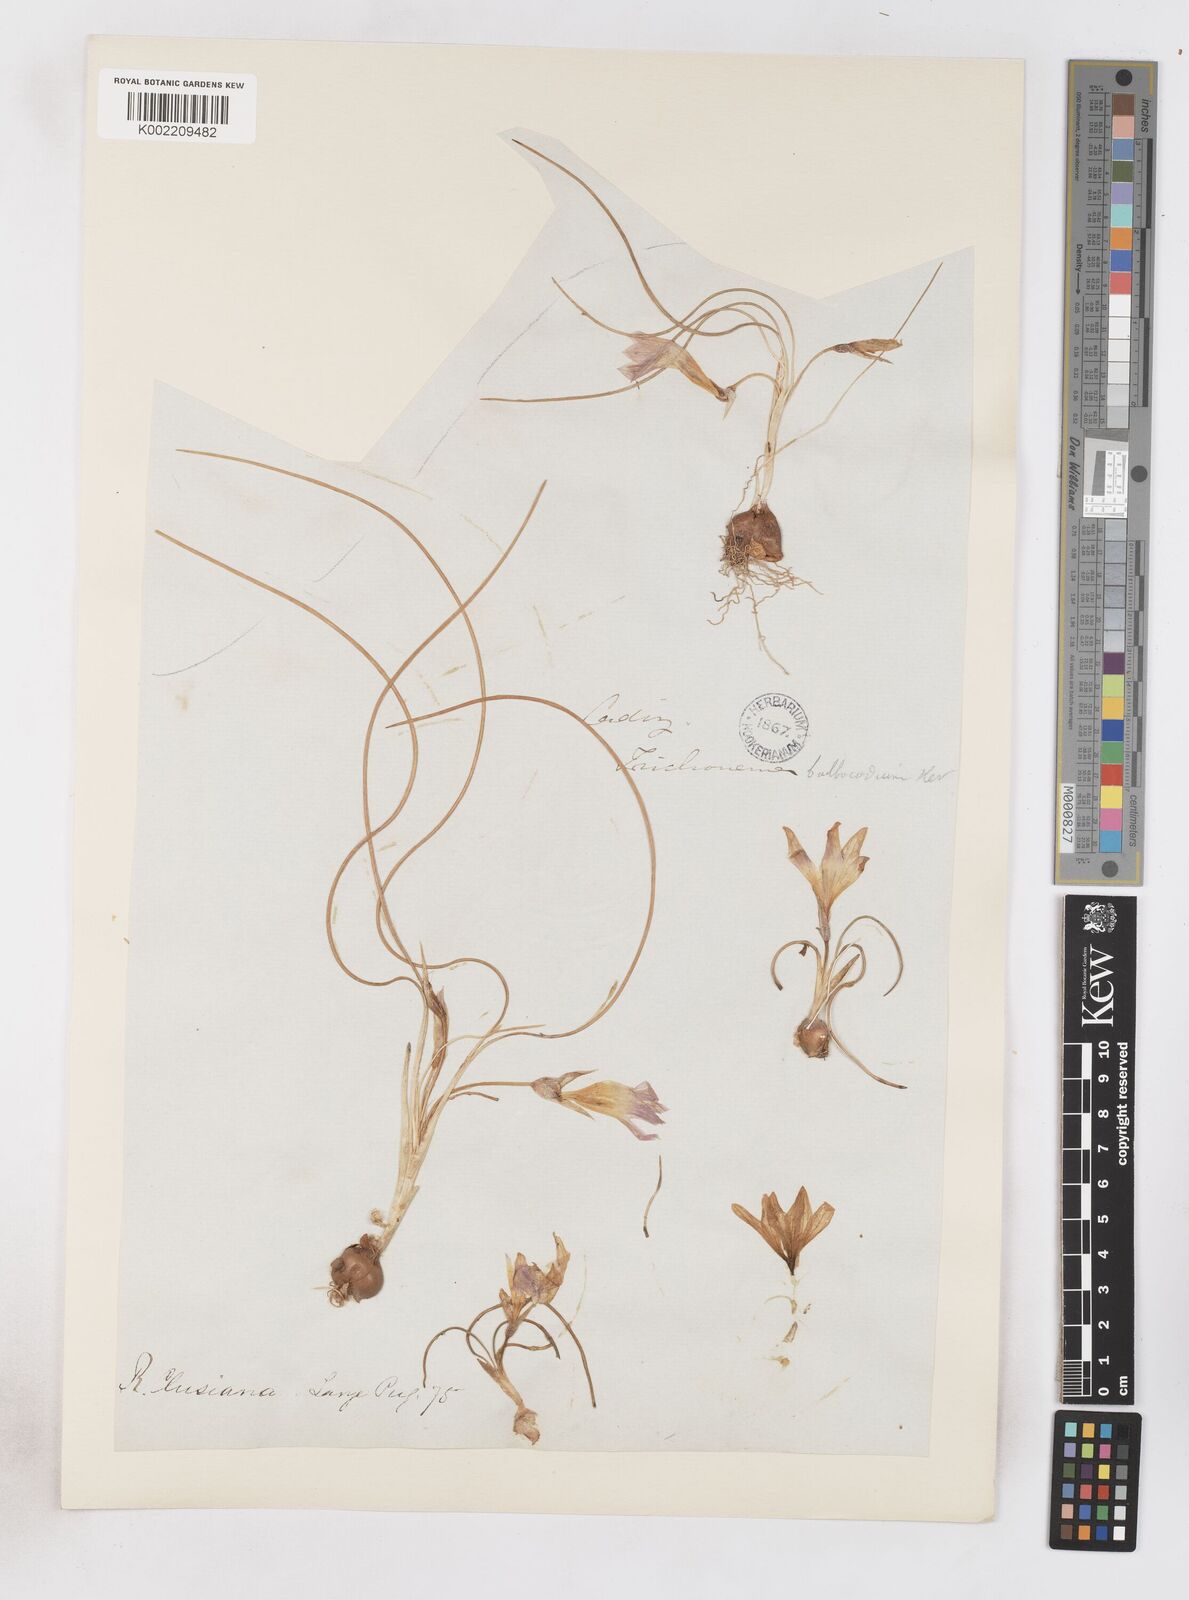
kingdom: Plantae
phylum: Tracheophyta
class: Liliopsida
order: Asparagales
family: Iridaceae
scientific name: Iridaceae
